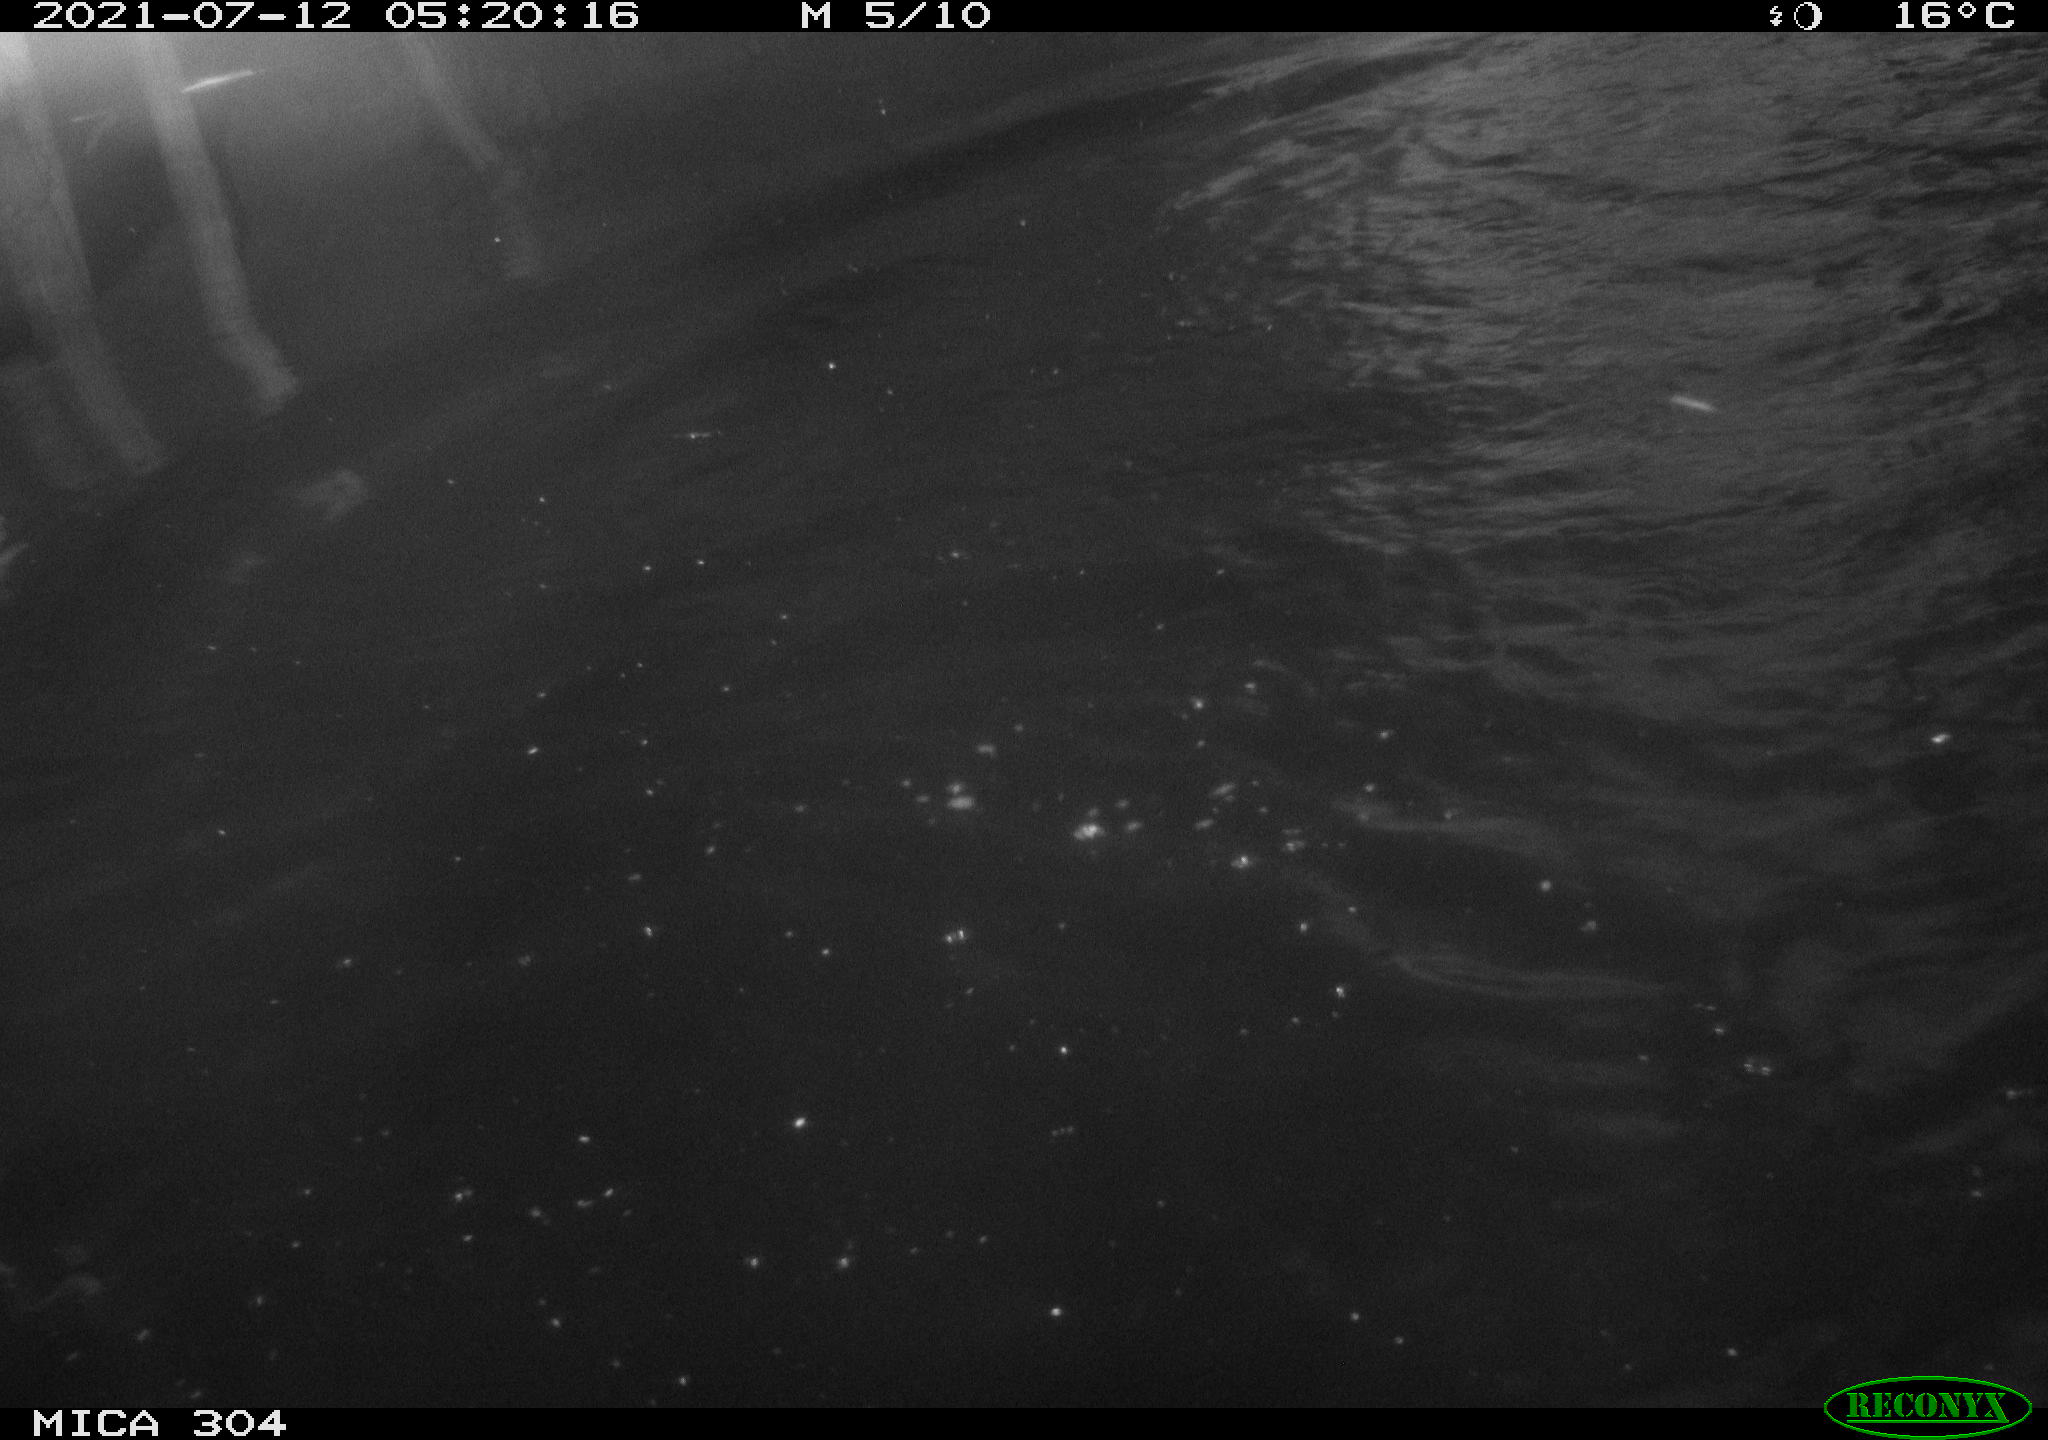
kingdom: Animalia
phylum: Chordata
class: Aves
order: Anseriformes
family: Anatidae
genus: Anas
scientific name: Anas platyrhynchos
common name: Mallard
